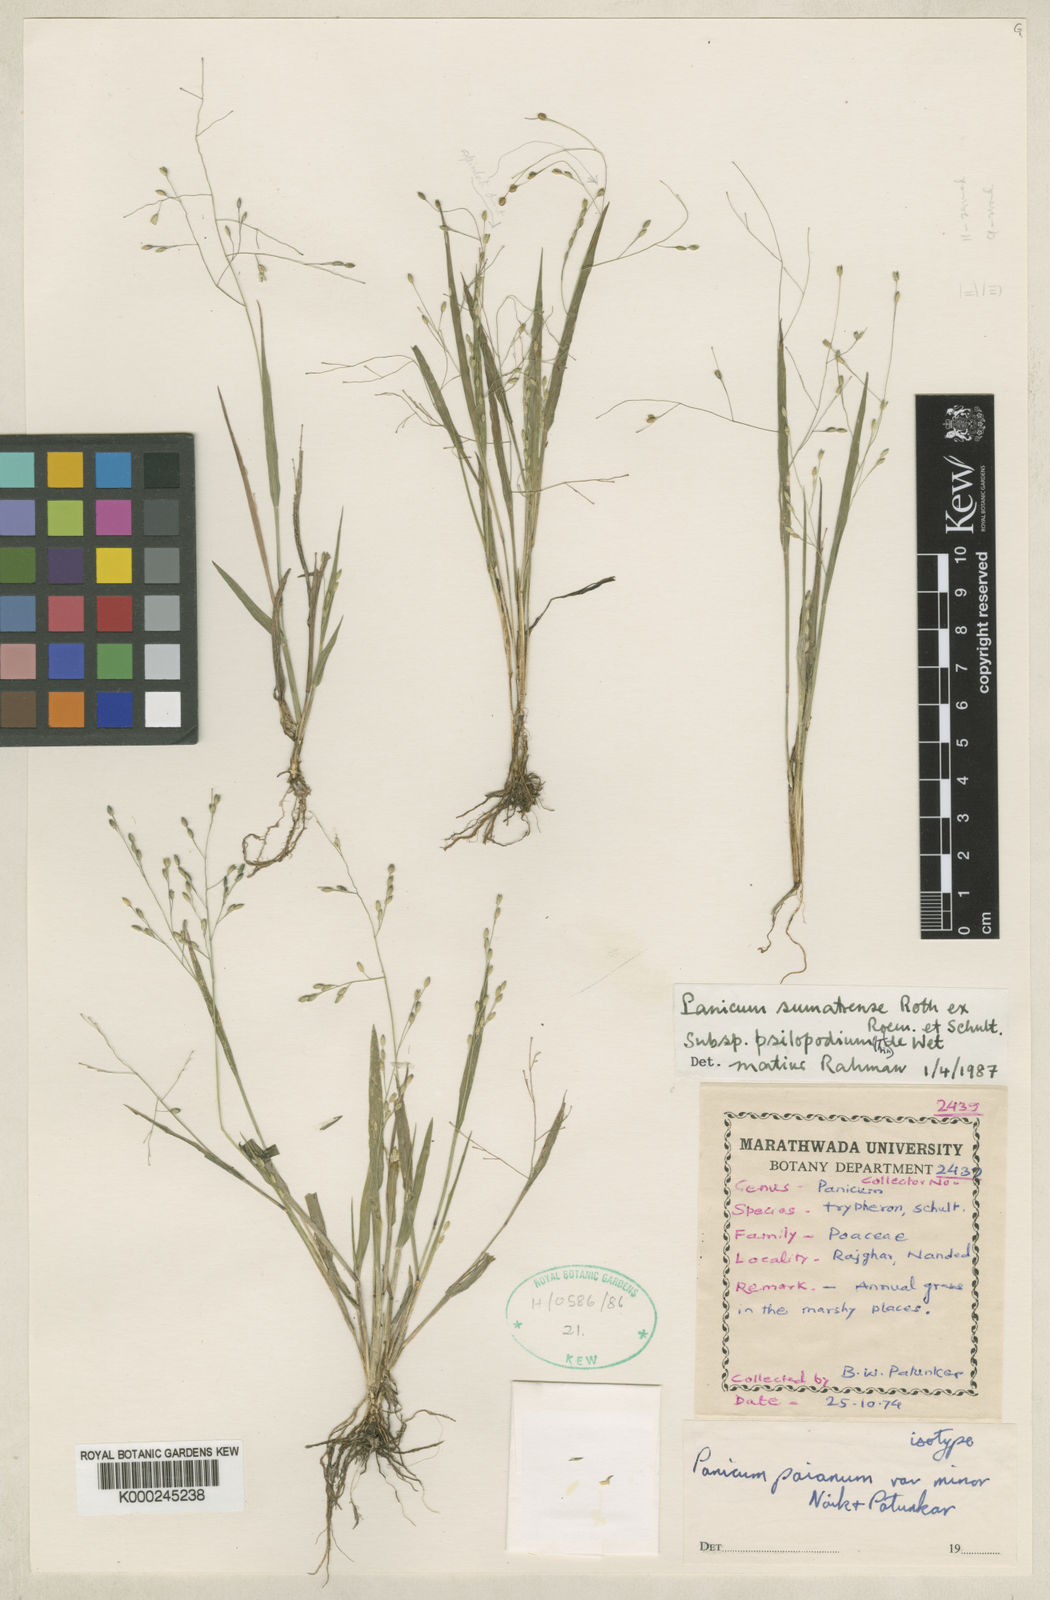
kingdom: Plantae
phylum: Tracheophyta
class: Liliopsida
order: Poales
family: Poaceae
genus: Panicum
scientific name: Panicum
